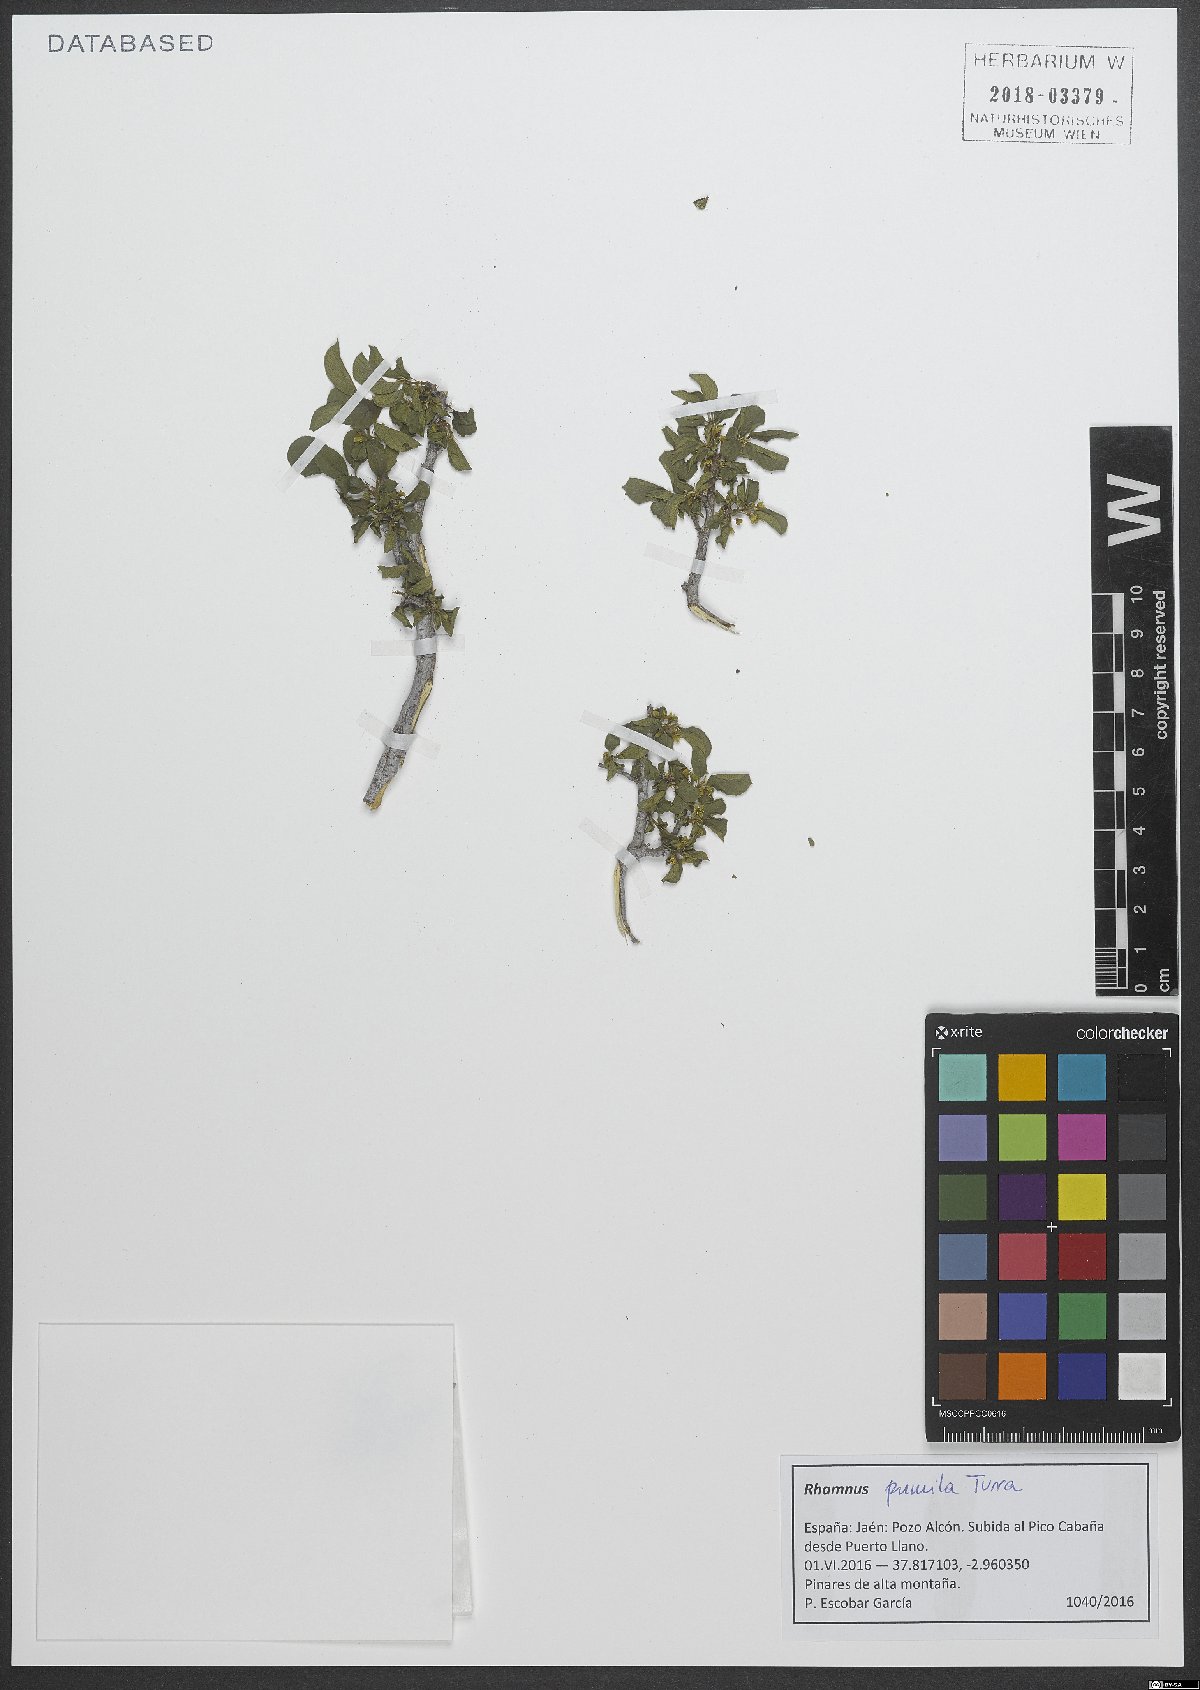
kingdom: Plantae
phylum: Tracheophyta
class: Magnoliopsida
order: Rosales
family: Rhamnaceae
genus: Atadinus
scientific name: Atadinus pumilus
